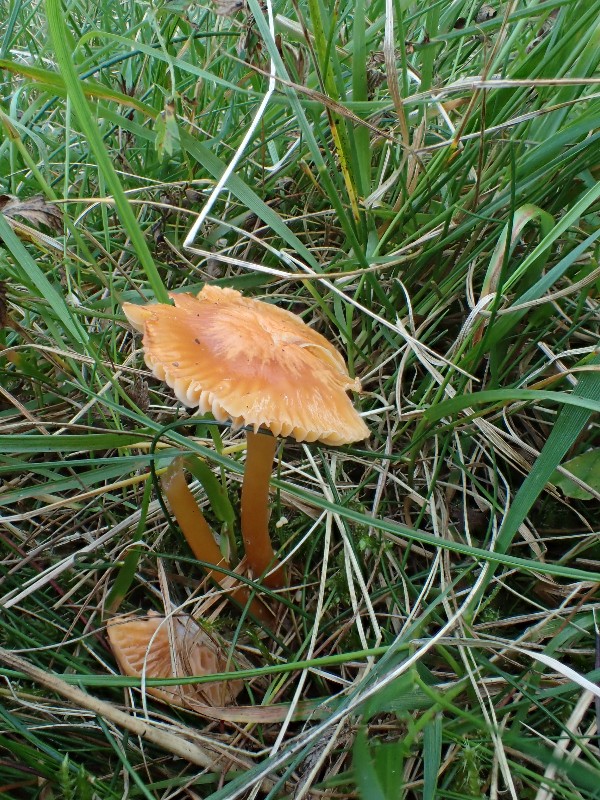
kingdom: Fungi
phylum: Basidiomycota
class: Agaricomycetes
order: Agaricales
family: Hygrophoraceae
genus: Gliophorus
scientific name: Gliophorus laetus
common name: brusk-vokshat
